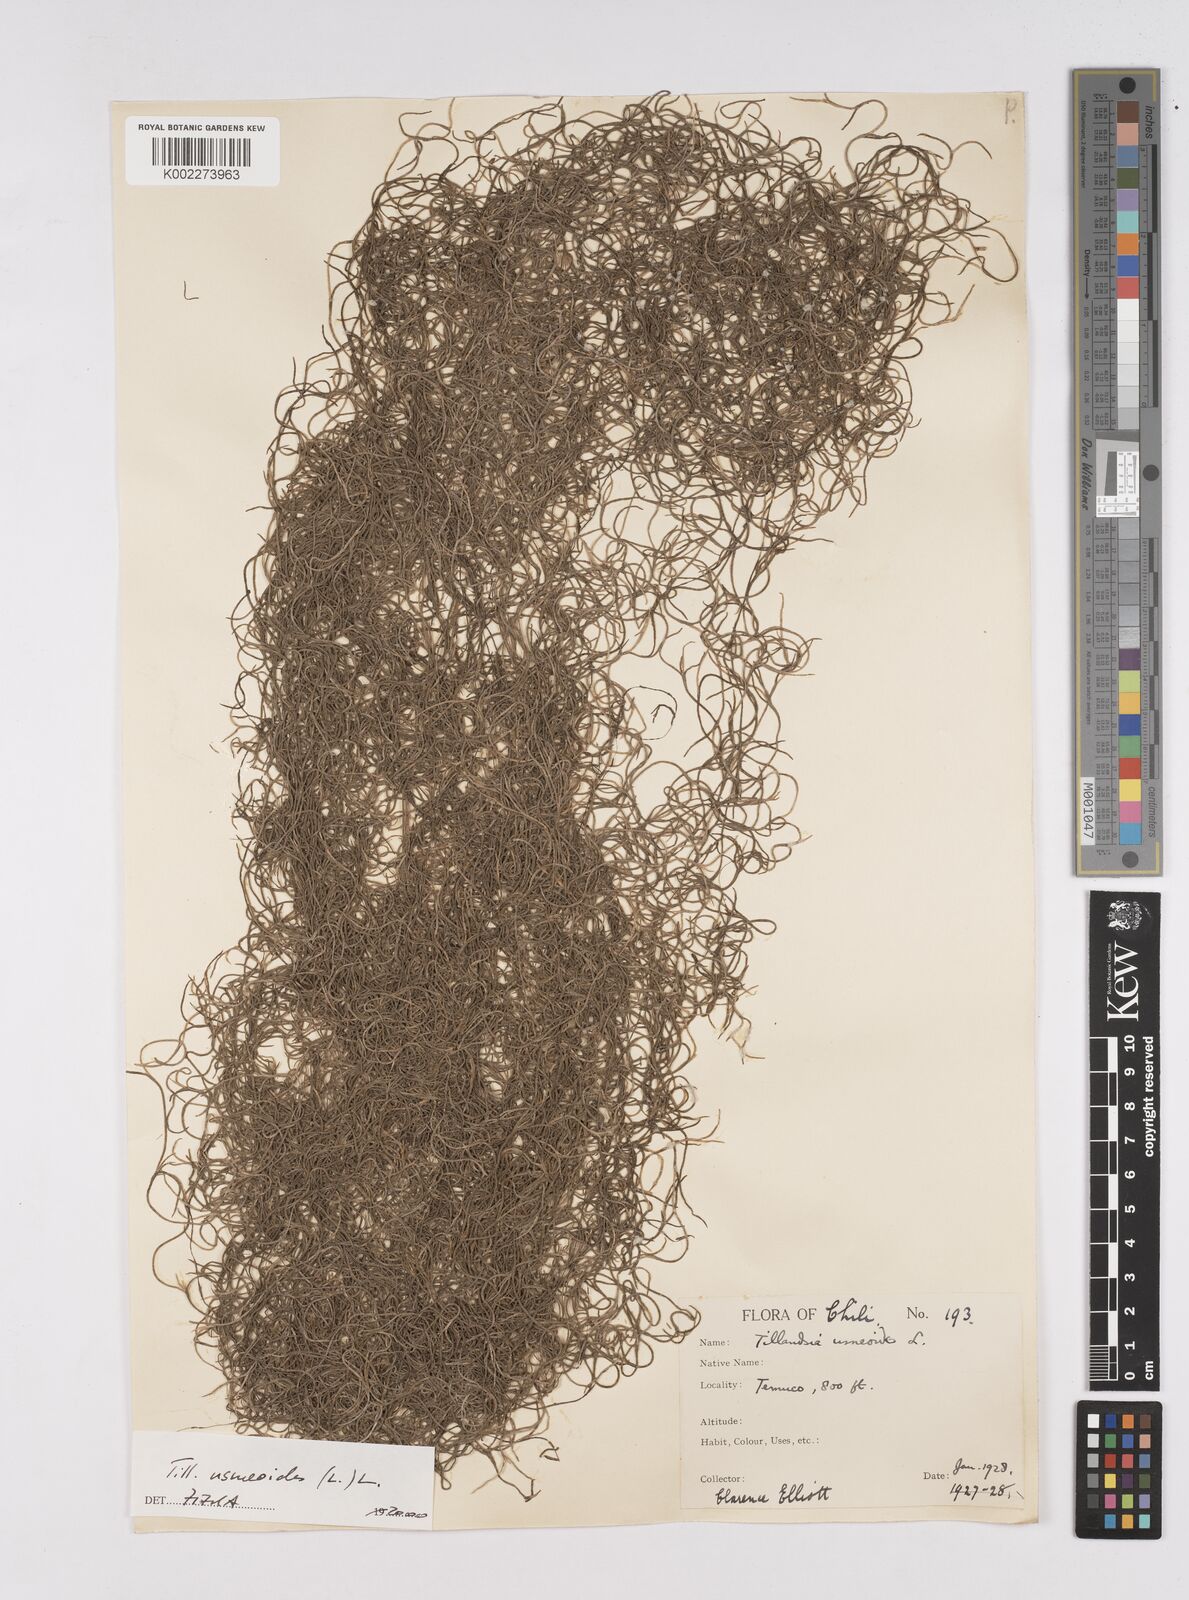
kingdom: Plantae
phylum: Tracheophyta
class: Liliopsida
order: Poales
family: Bromeliaceae
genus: Tillandsia
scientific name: Tillandsia usneoides
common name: Spanish moss
